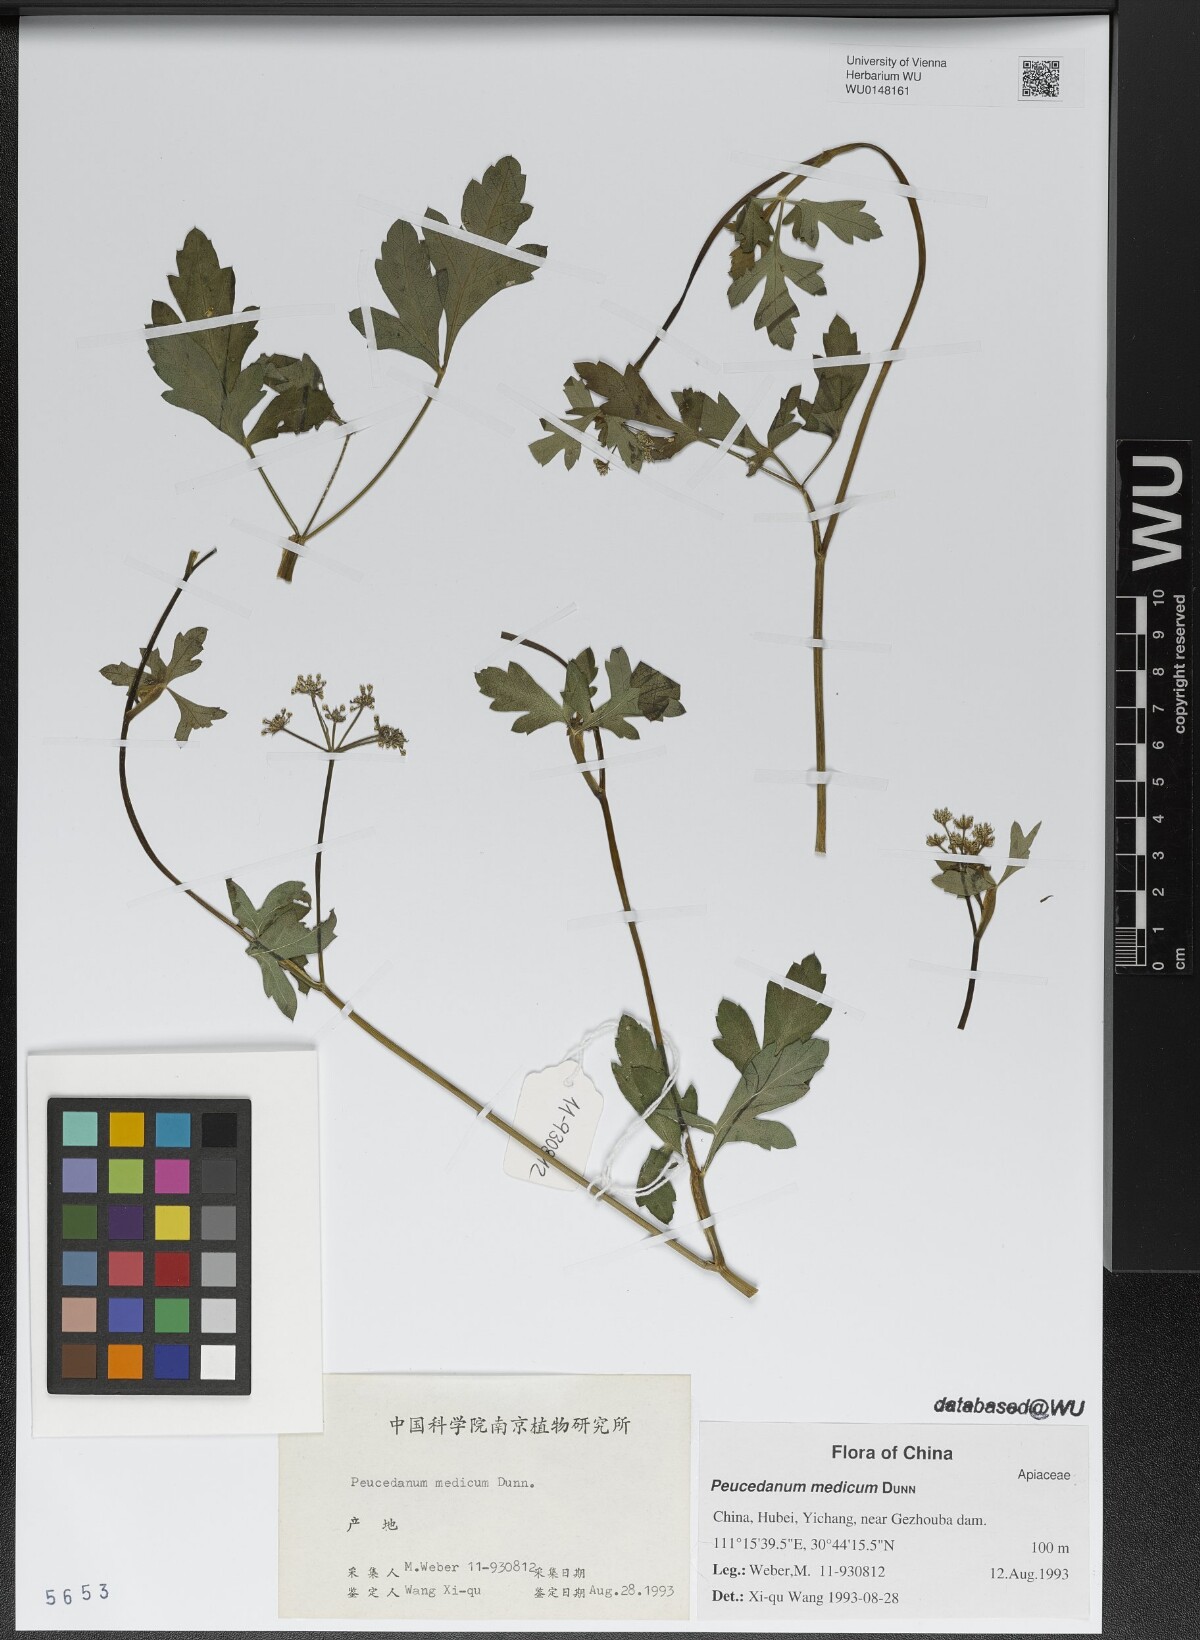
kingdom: Plantae
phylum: Tracheophyta
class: Magnoliopsida
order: Apiales
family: Apiaceae
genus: Peucedanum
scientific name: Peucedanum medicum
